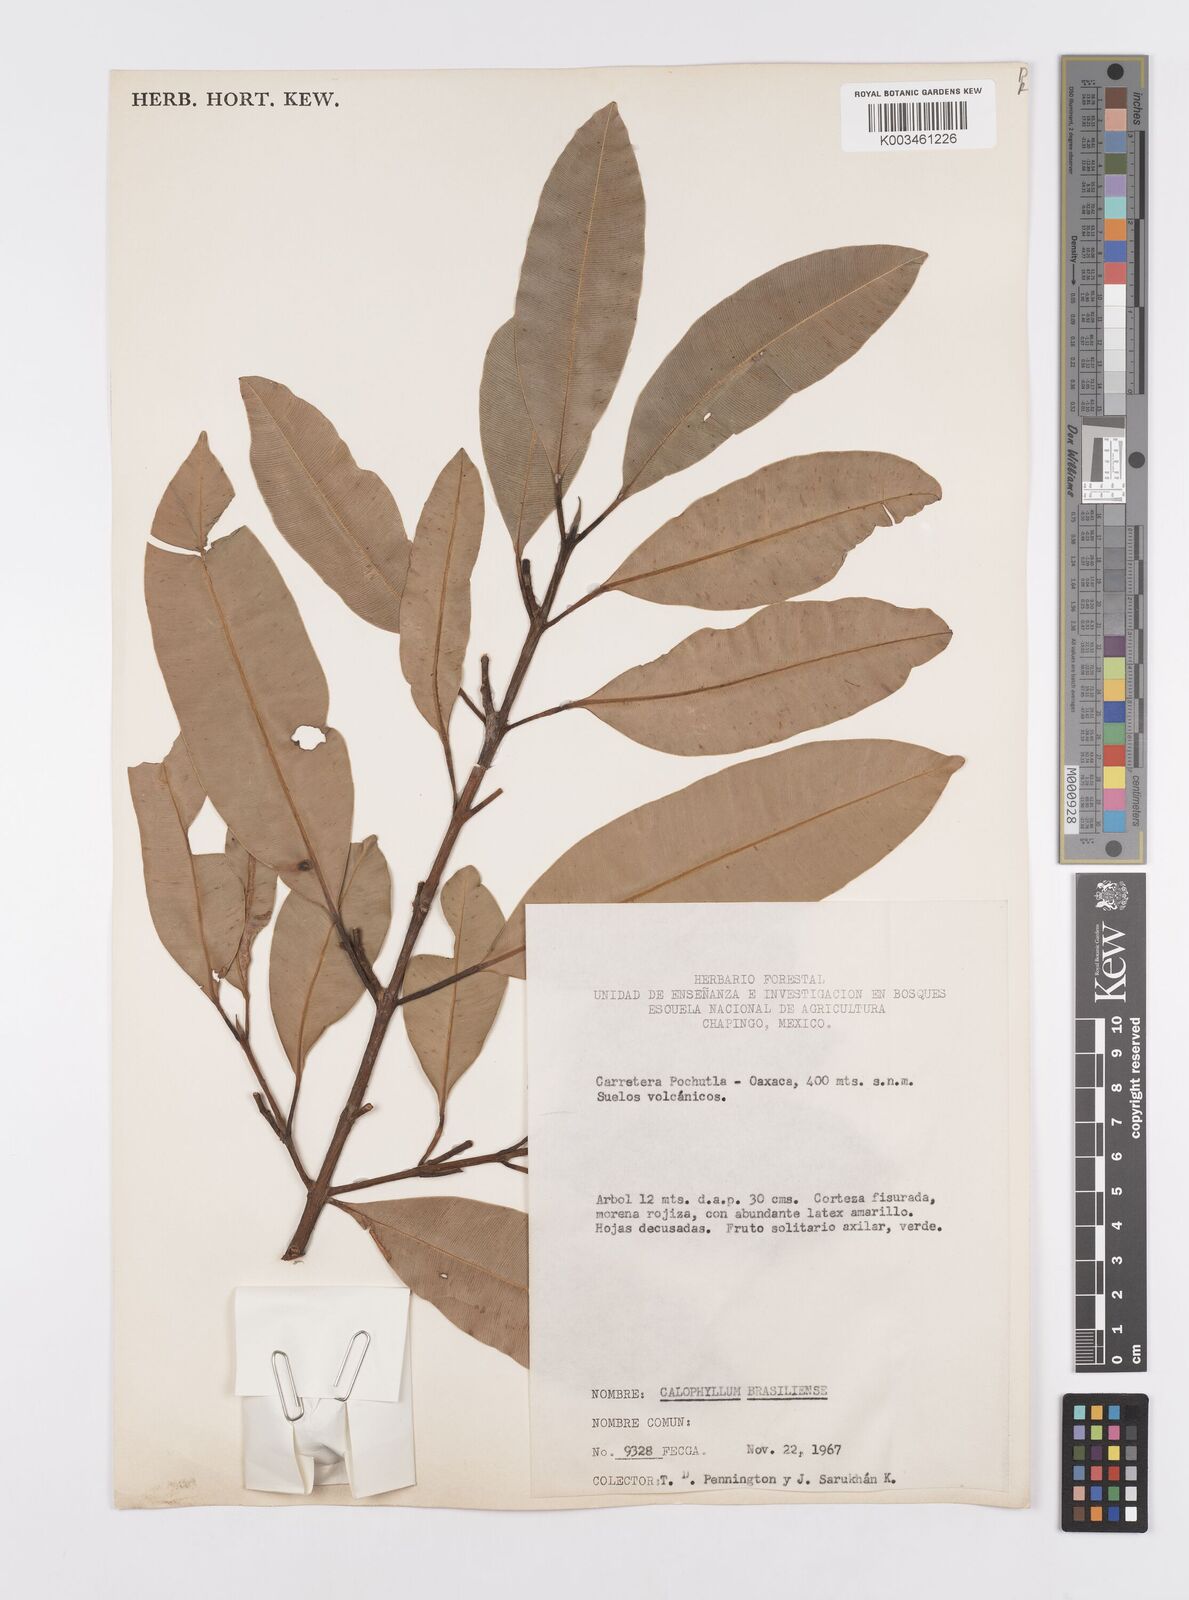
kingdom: Plantae
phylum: Tracheophyta
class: Magnoliopsida
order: Malpighiales
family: Calophyllaceae
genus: Calophyllum
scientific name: Calophyllum brasiliense
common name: Santa maria
